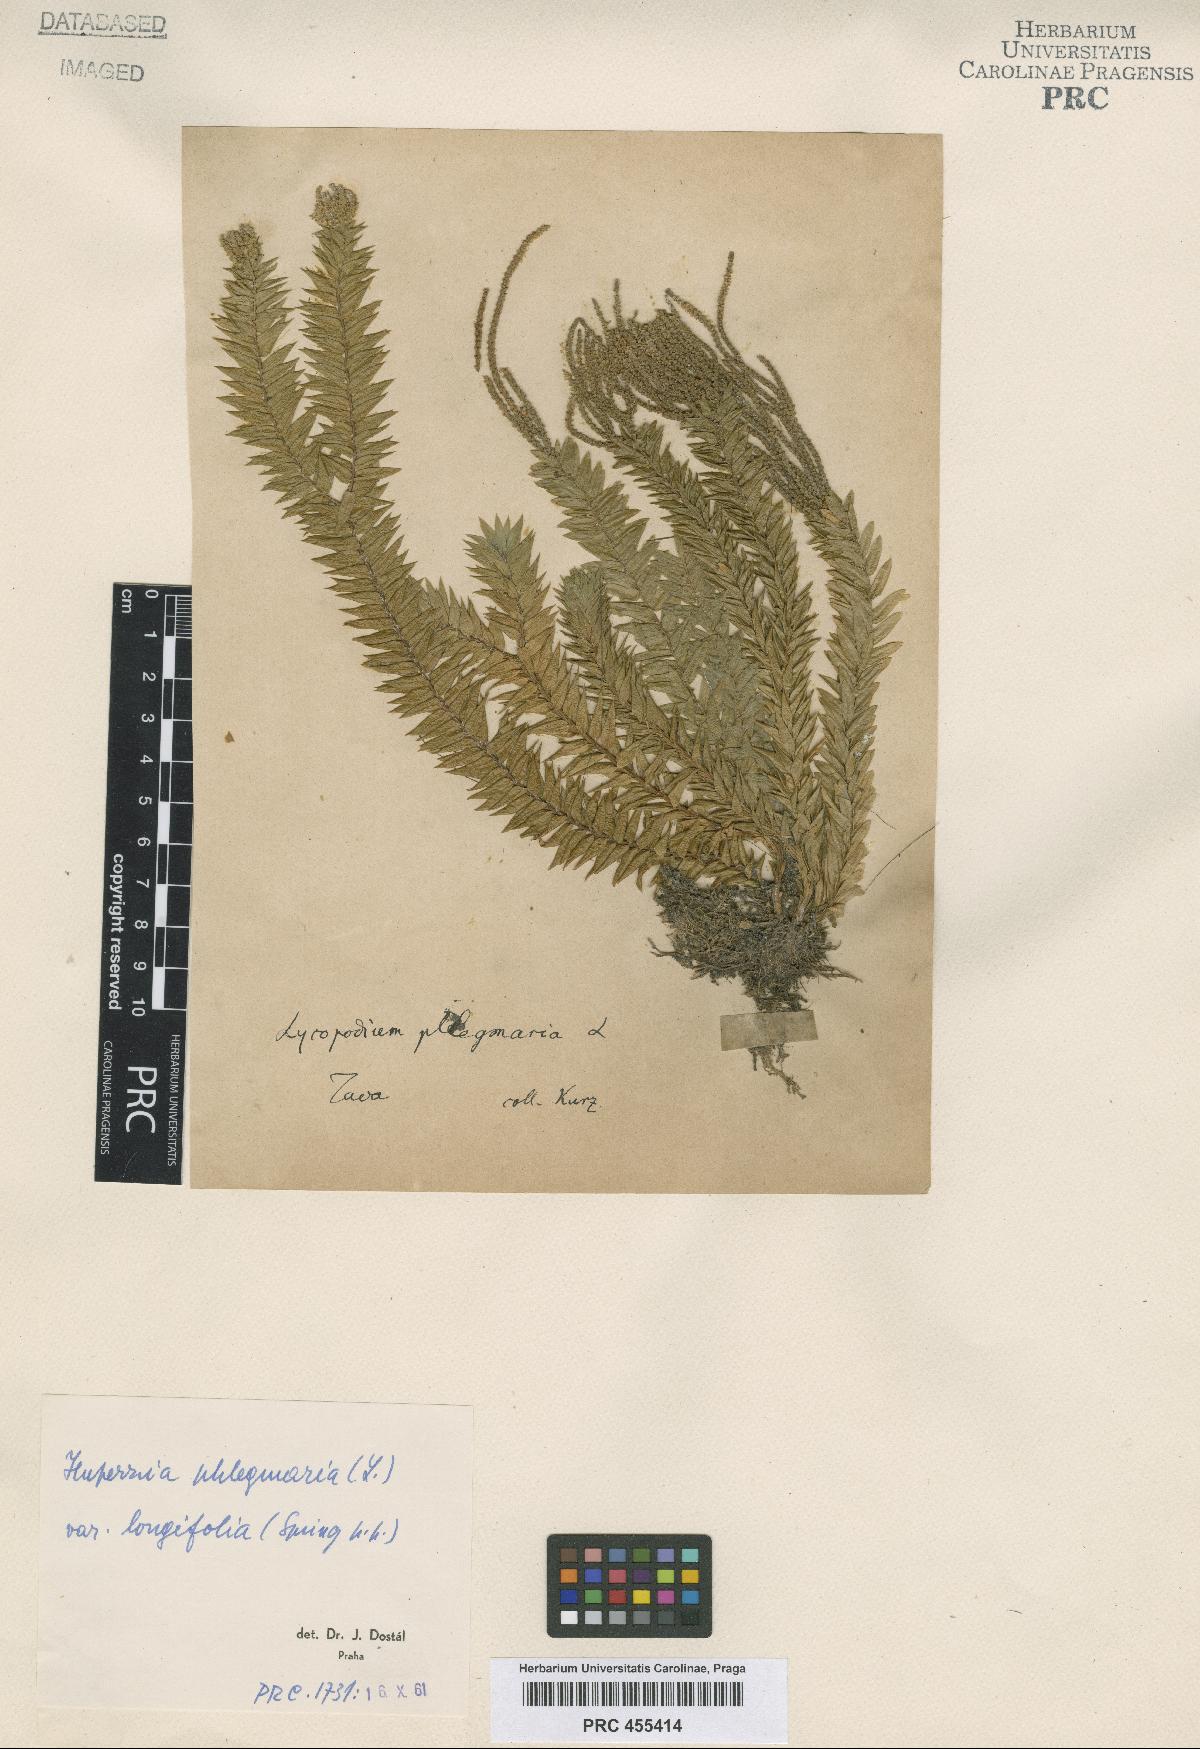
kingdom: Plantae
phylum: Tracheophyta
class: Lycopodiopsida
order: Lycopodiales
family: Lycopodiaceae
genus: Phlegmariurus
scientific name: Phlegmariurus phlegmaria
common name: Coarse tassel-fern
